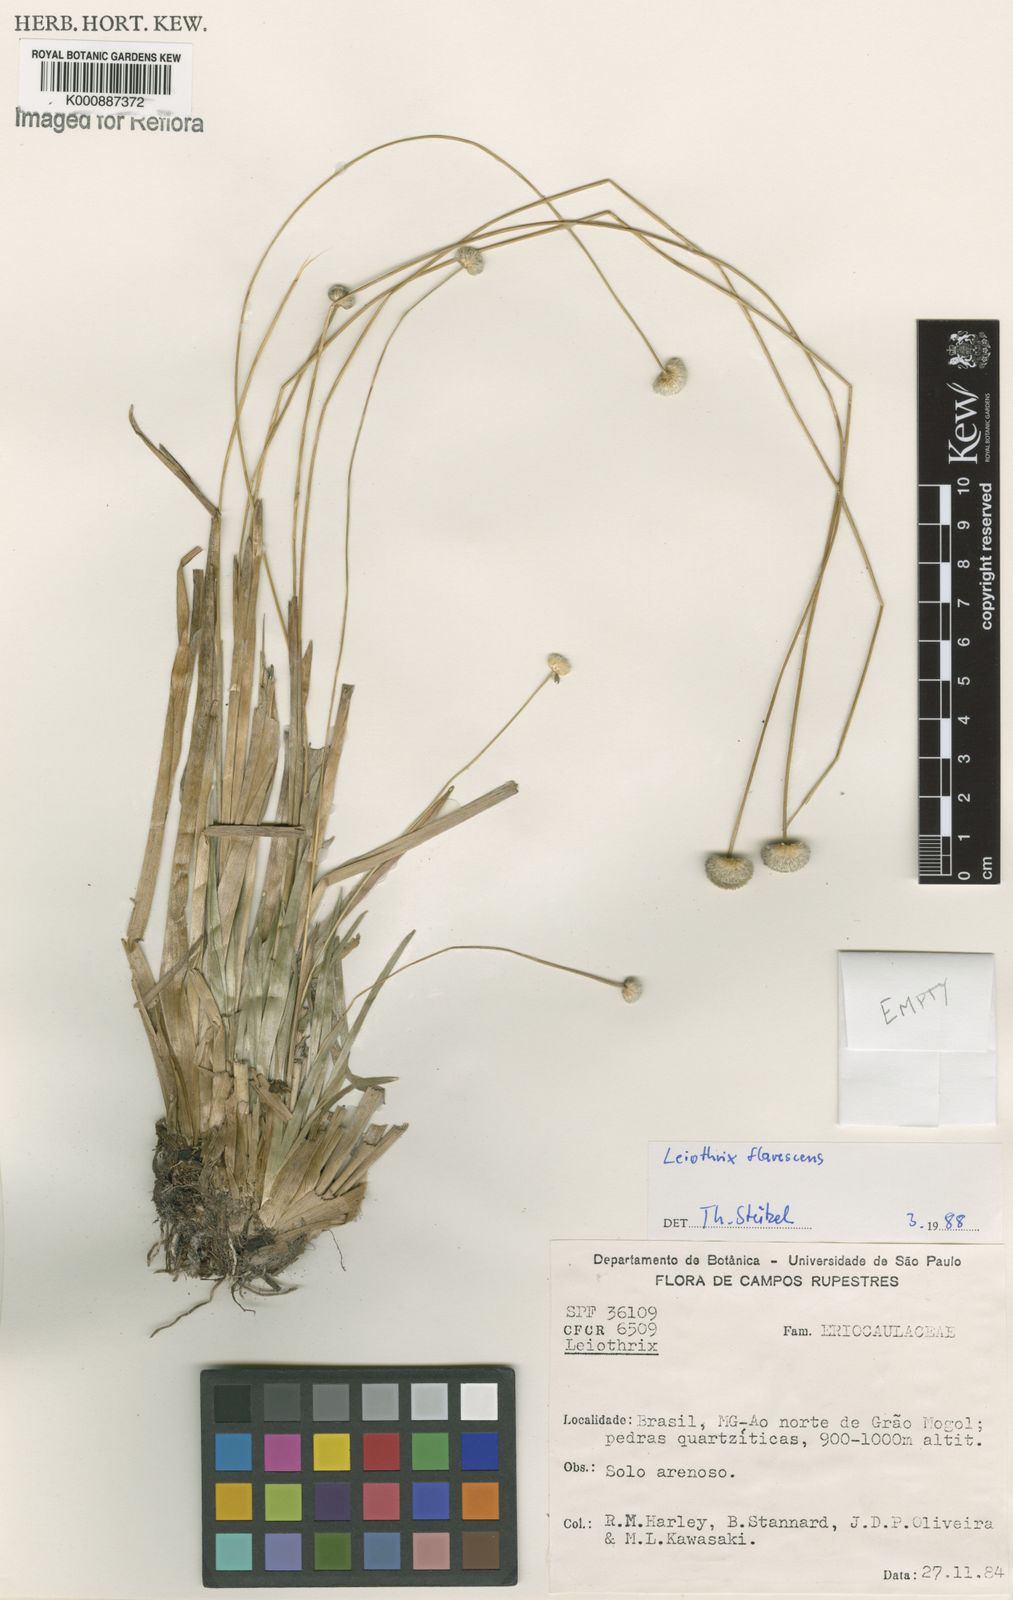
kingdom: Plantae
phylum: Tracheophyta
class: Liliopsida
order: Poales
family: Eriocaulaceae
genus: Leiothrix
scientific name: Leiothrix flavescens
